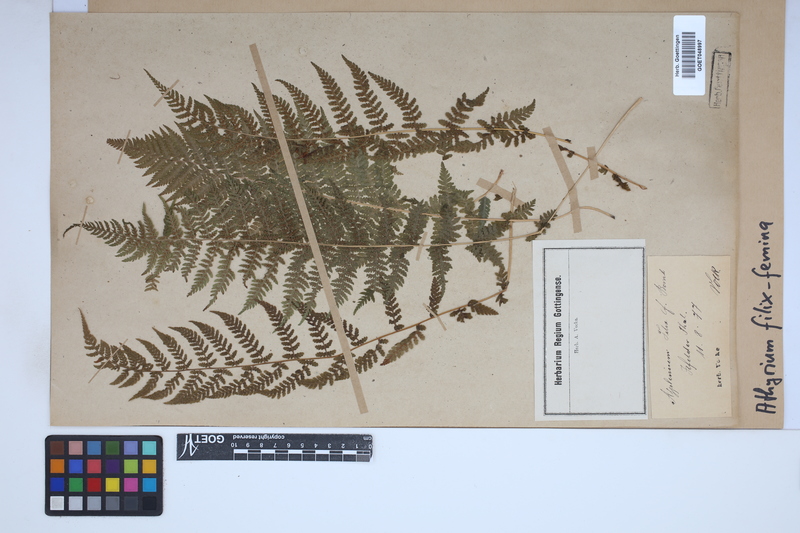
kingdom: Plantae
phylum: Tracheophyta
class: Polypodiopsida
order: Polypodiales
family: Athyriaceae
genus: Athyrium
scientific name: Athyrium filix-femina
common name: Lady fern
